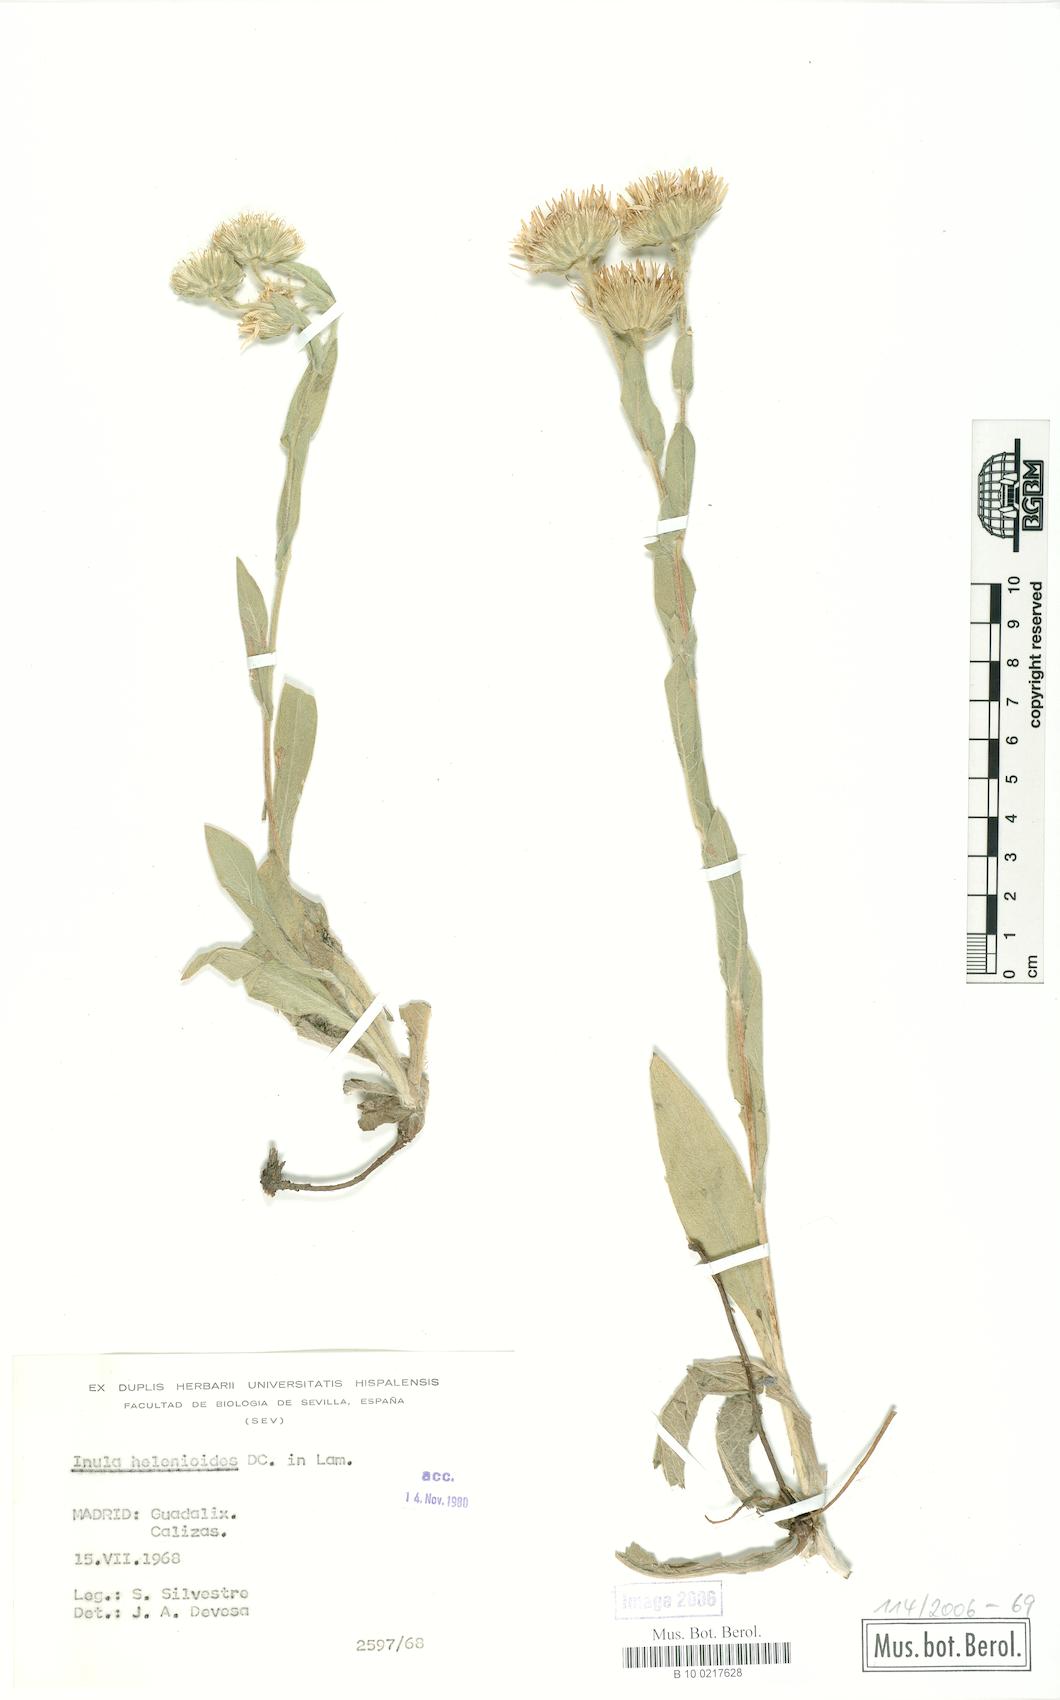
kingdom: Plantae
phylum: Tracheophyta
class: Magnoliopsida
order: Asterales
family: Asteraceae
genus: Pentanema
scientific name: Pentanema helenioides
